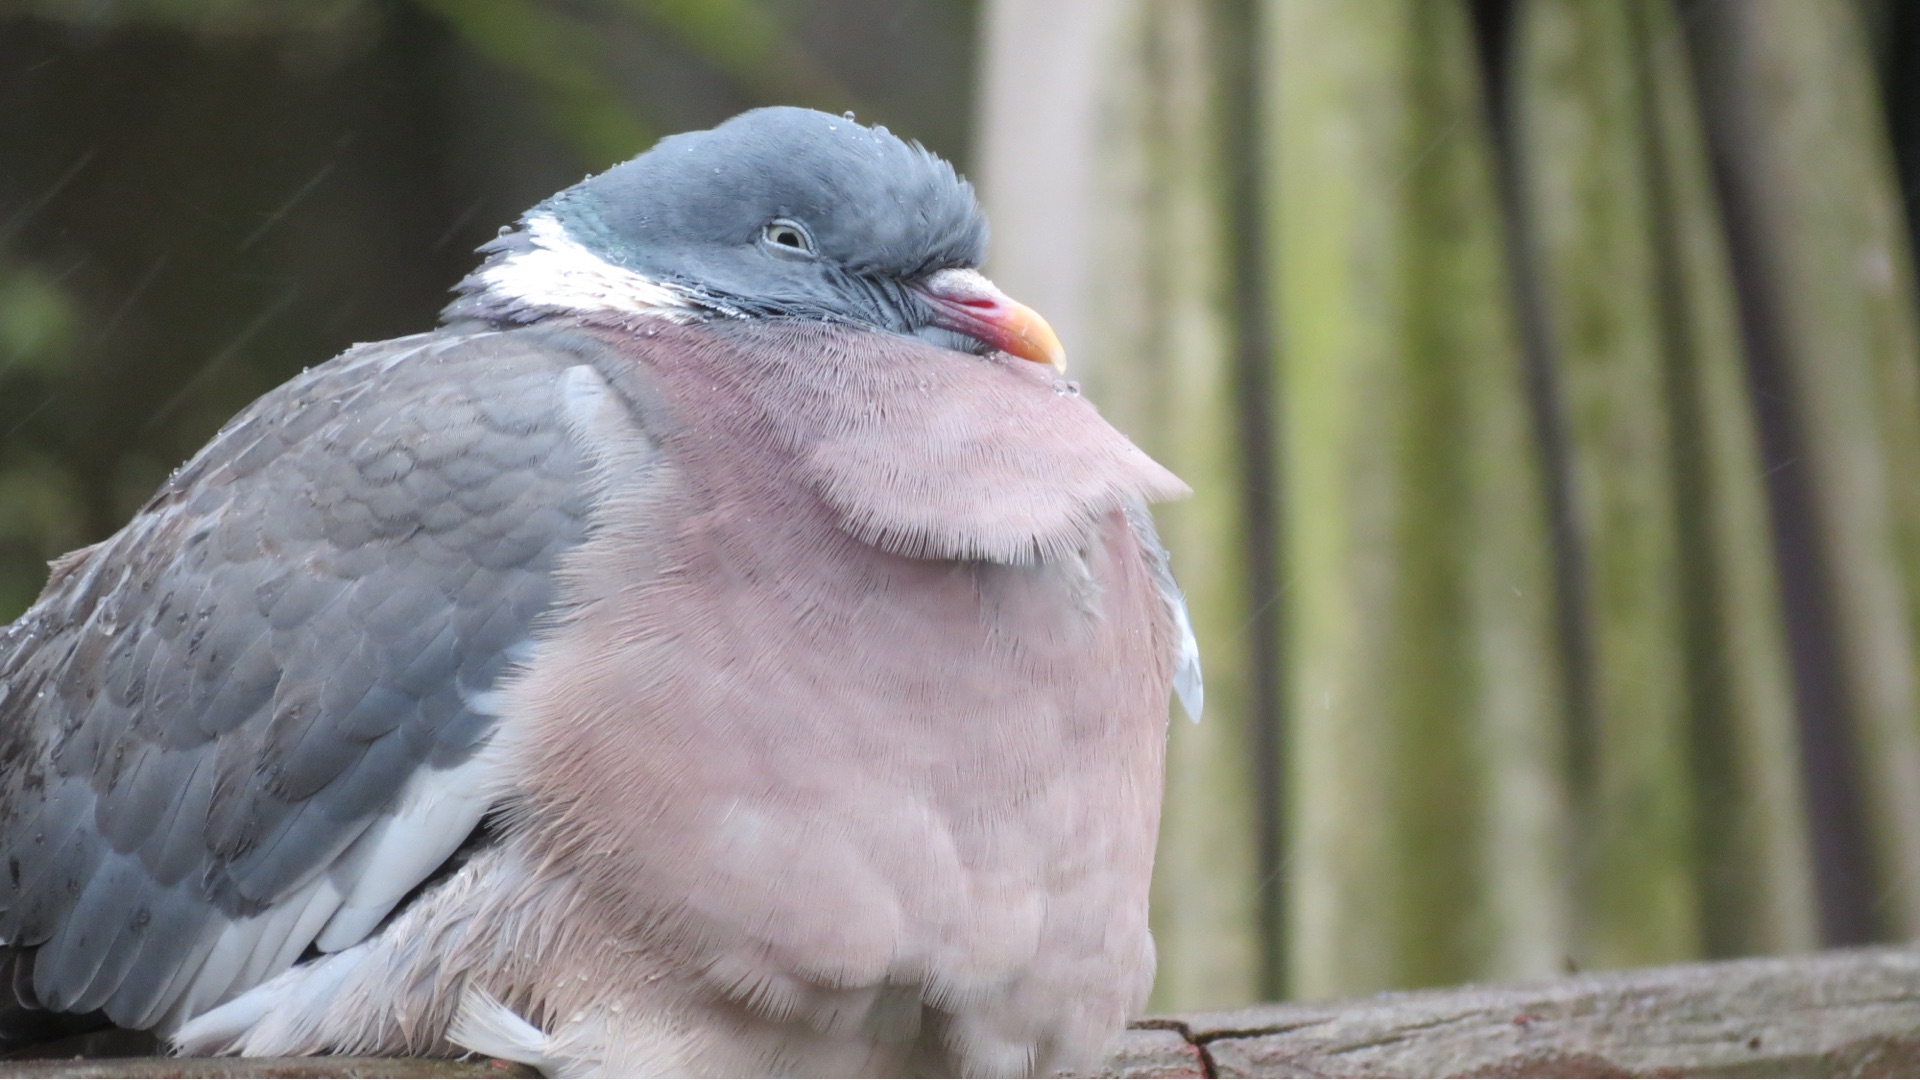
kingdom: Animalia
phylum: Chordata
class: Aves
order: Columbiformes
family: Columbidae
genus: Columba
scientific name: Columba palumbus
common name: Ringdue
